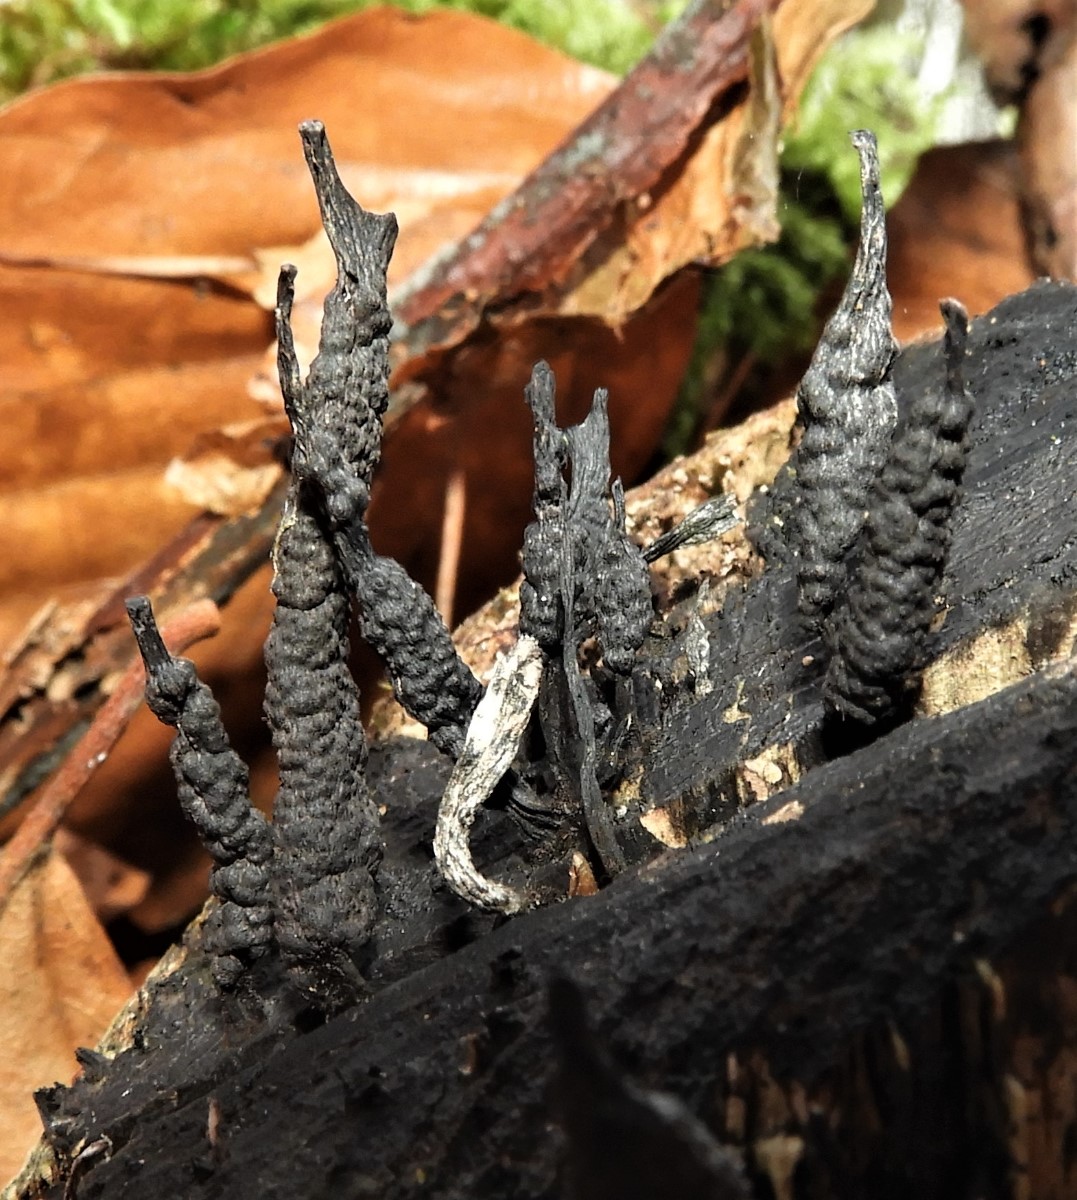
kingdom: Fungi
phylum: Ascomycota
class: Sordariomycetes
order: Xylariales
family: Xylariaceae
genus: Xylaria
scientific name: Xylaria hypoxylon
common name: grenet stødsvamp
